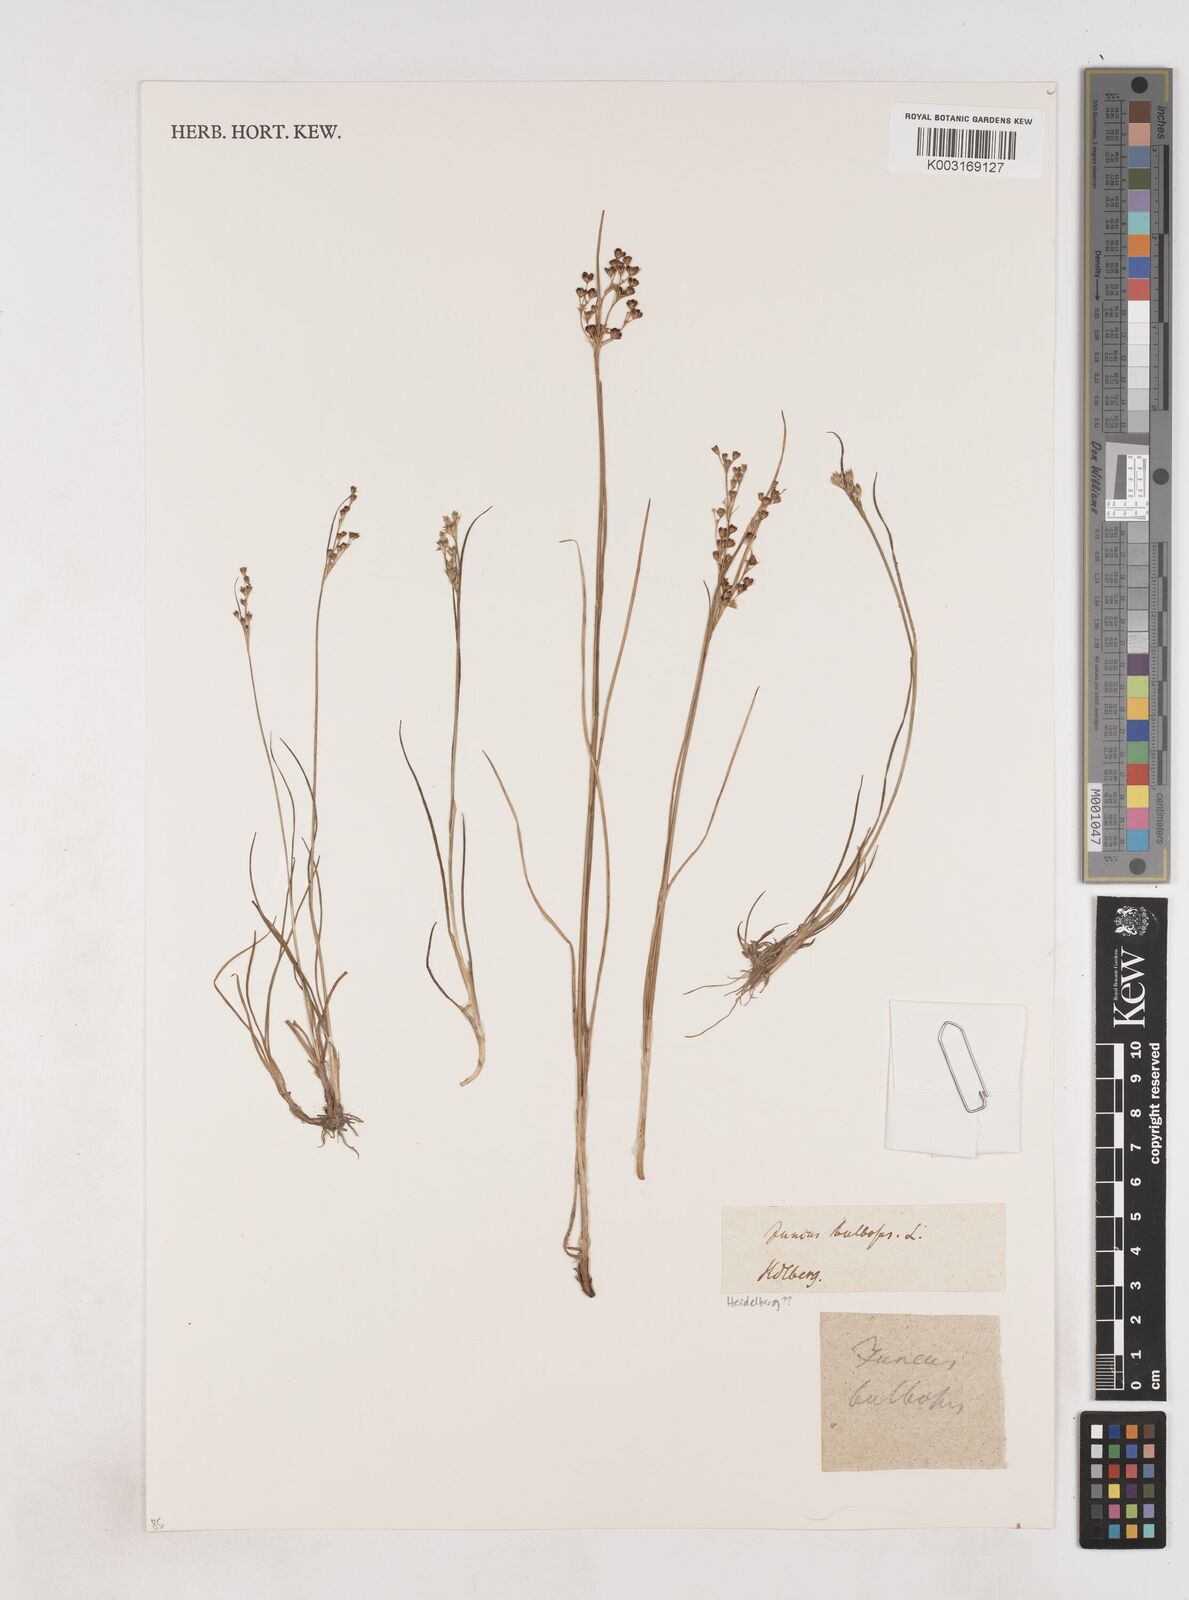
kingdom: Plantae
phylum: Tracheophyta
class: Liliopsida
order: Poales
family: Juncaceae
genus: Juncus
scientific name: Juncus bulbosus
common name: Bulbous rush
